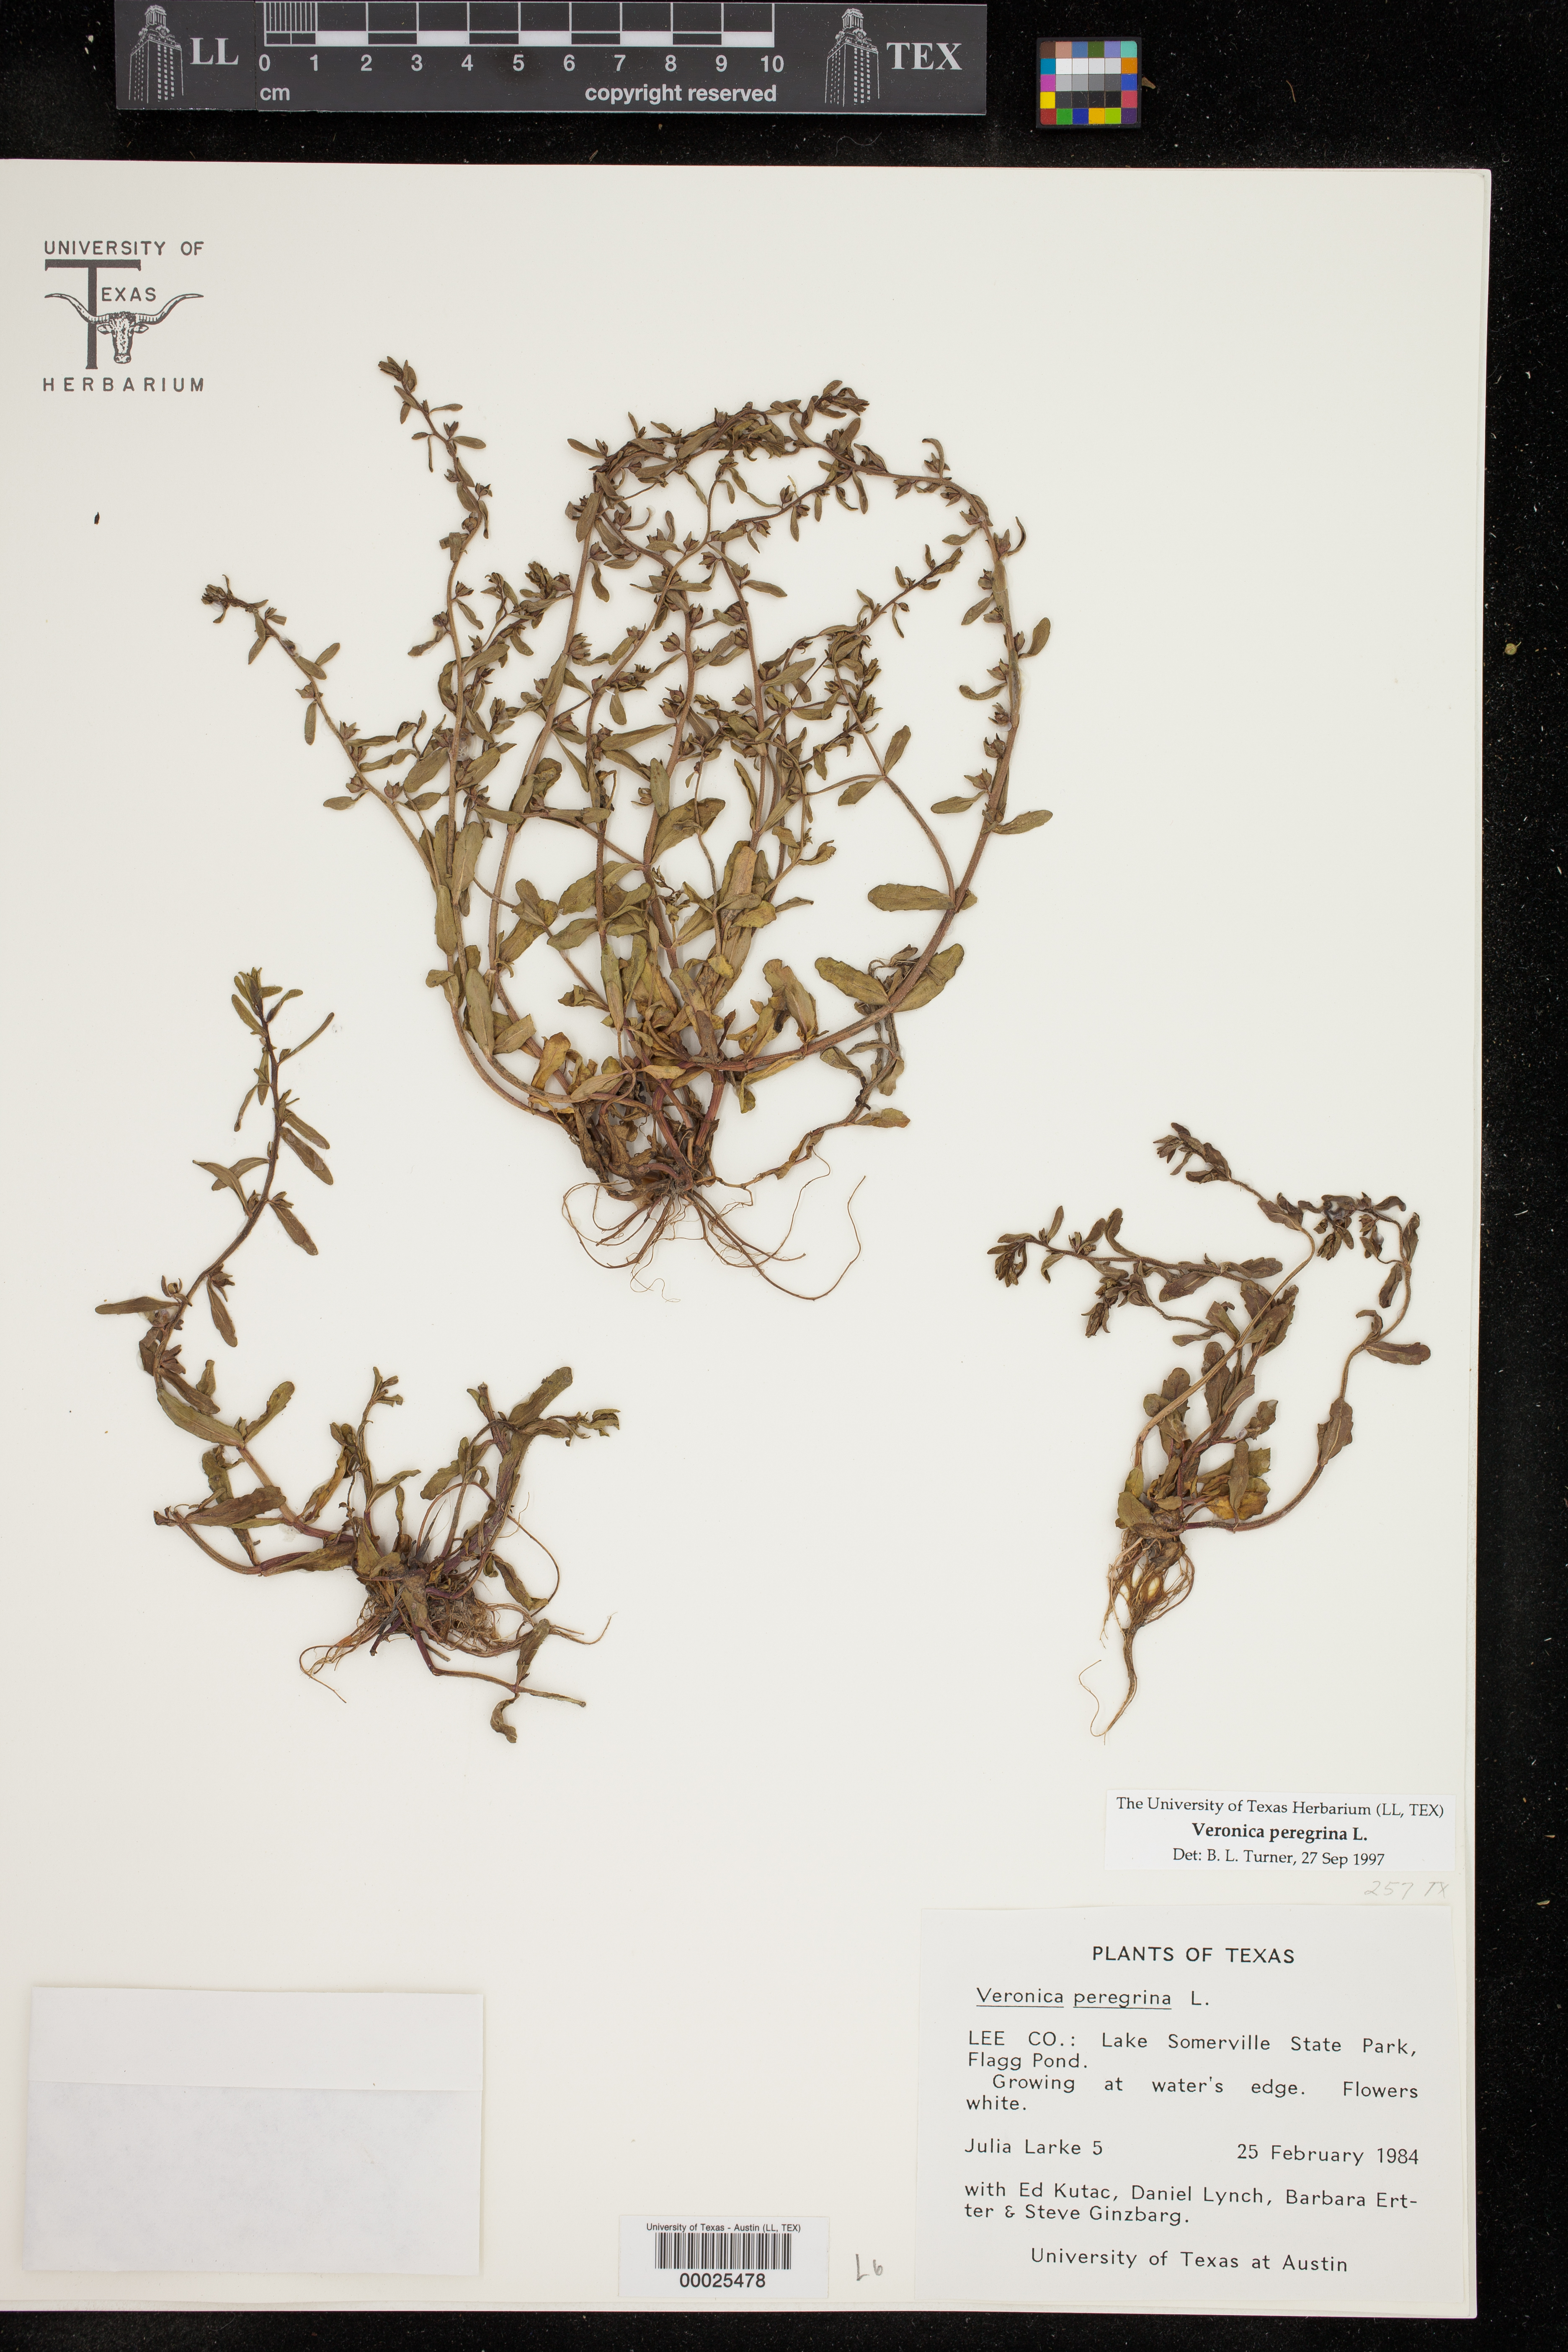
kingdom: Plantae
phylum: Tracheophyta
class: Magnoliopsida
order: Lamiales
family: Plantaginaceae
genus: Veronica
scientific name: Veronica peregrina
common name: Neckweed
